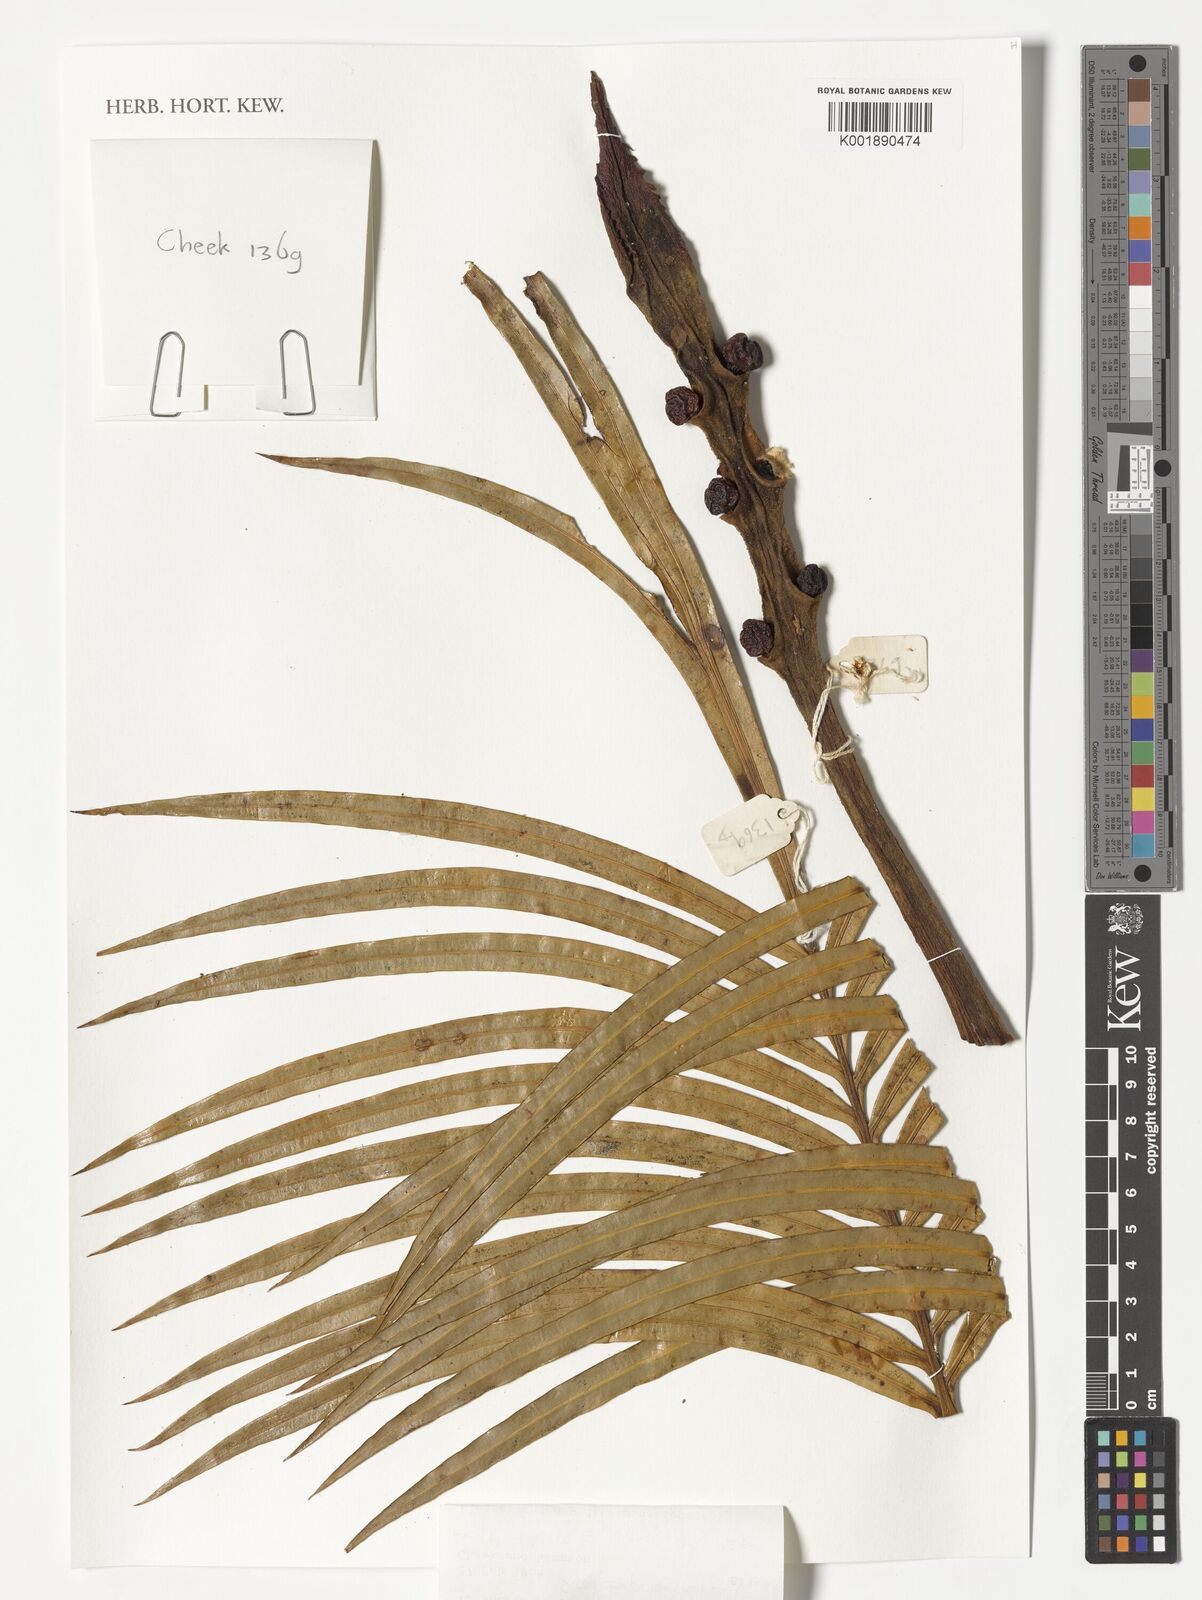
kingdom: Plantae
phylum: Tracheophyta
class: Cycadopsida
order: Cycadales
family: Cycadaceae
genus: Cycas
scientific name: Cycas thouarsii
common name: Madagascar cycad
